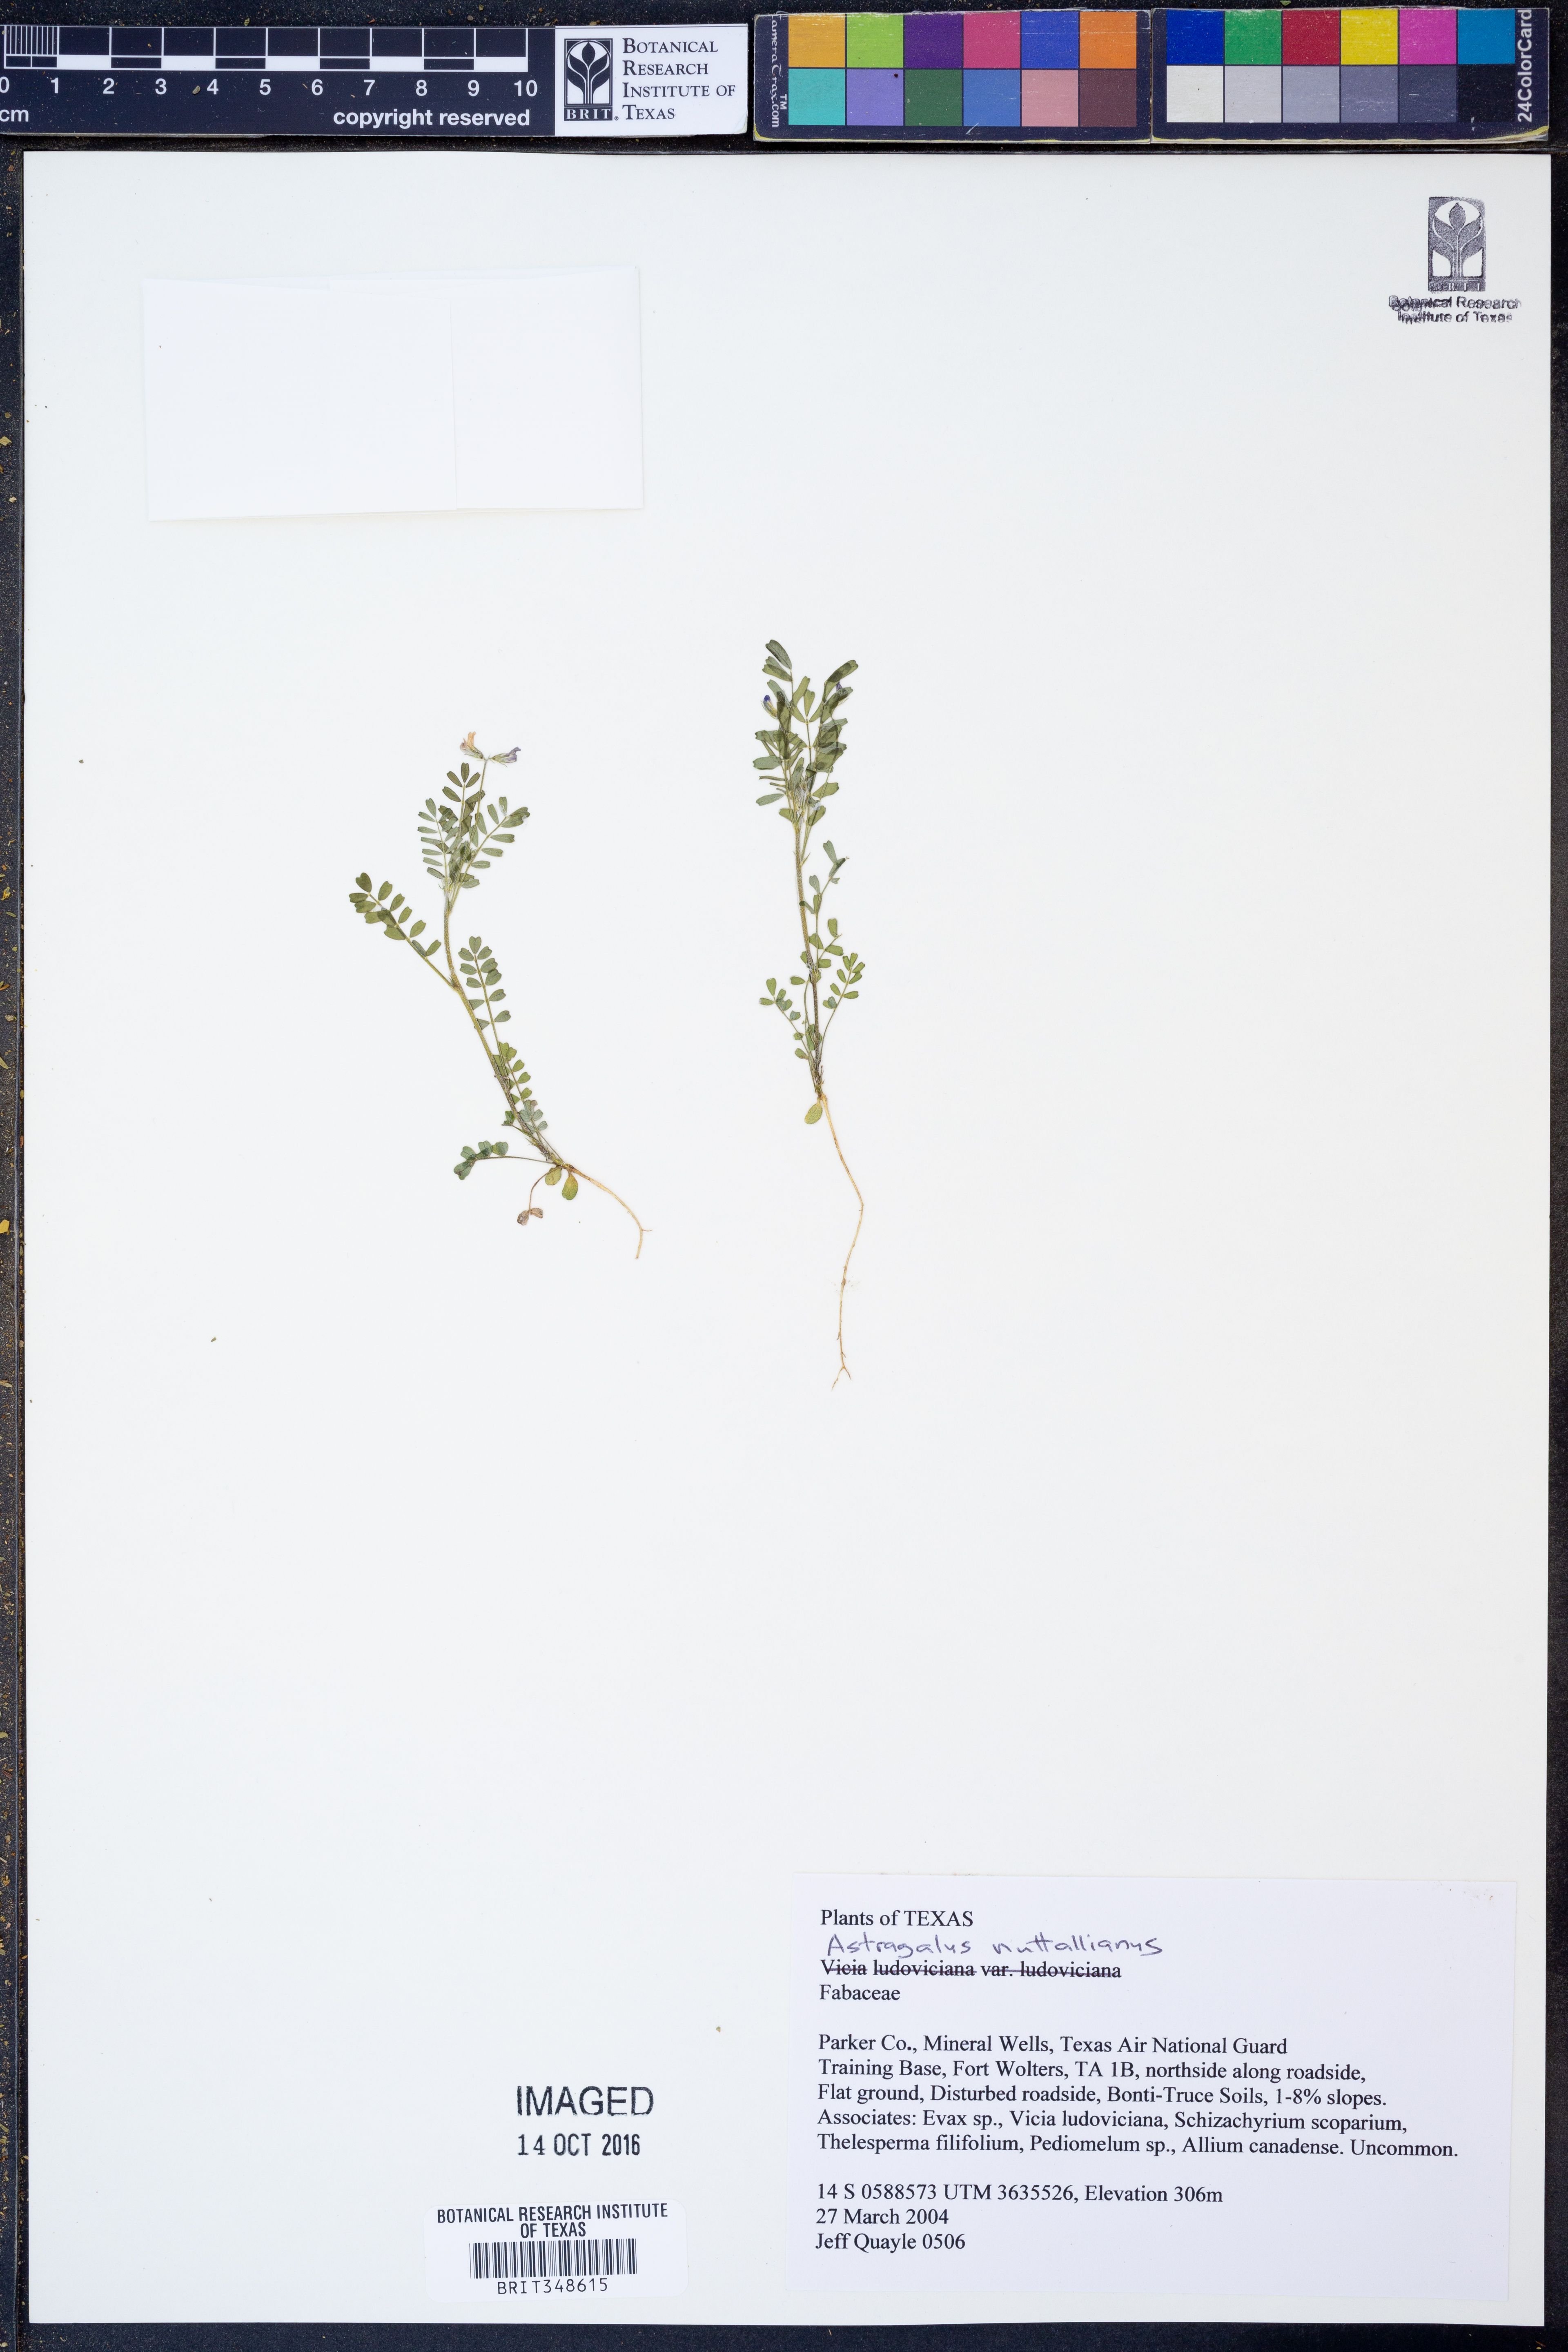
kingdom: Plantae
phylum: Tracheophyta
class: Magnoliopsida
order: Fabales
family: Fabaceae
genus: Astragalus
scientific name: Astragalus nuttallianus
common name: Smallflowered milkvetch
